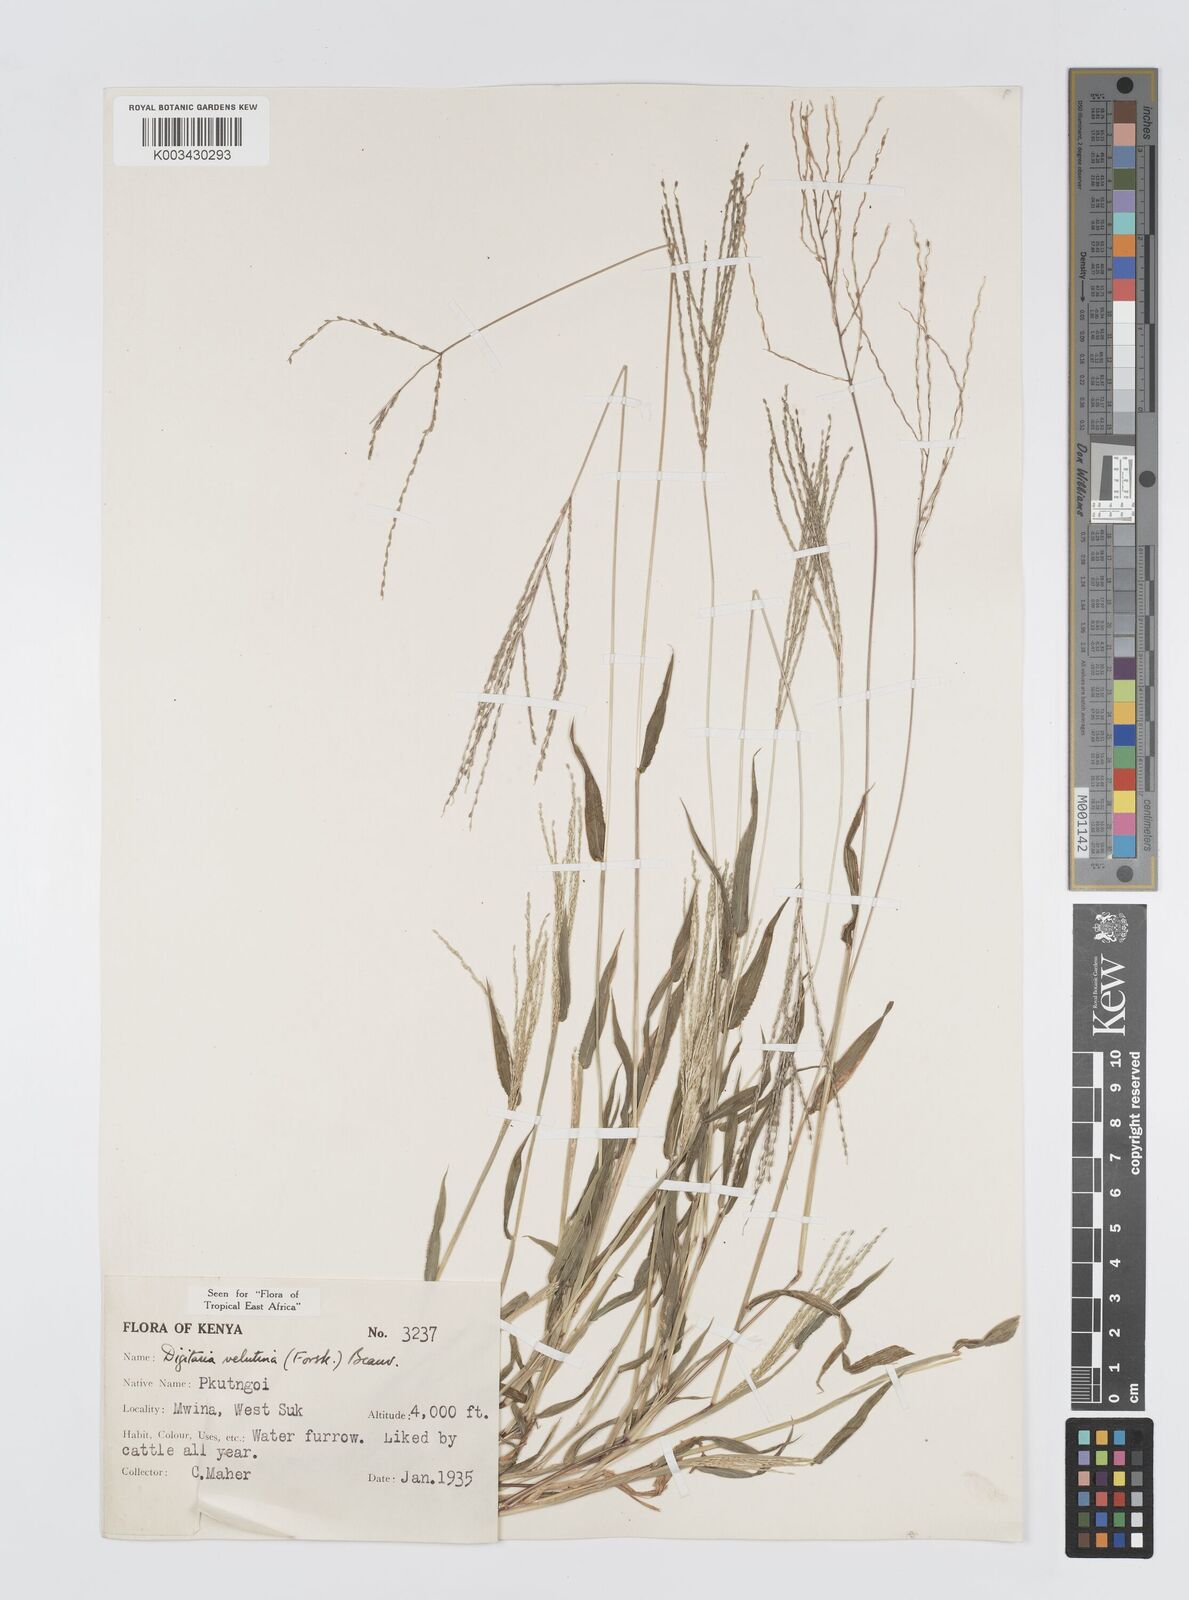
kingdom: Plantae
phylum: Tracheophyta
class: Liliopsida
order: Poales
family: Poaceae
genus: Digitaria
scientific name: Digitaria velutina
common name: Long-plume finger grass
